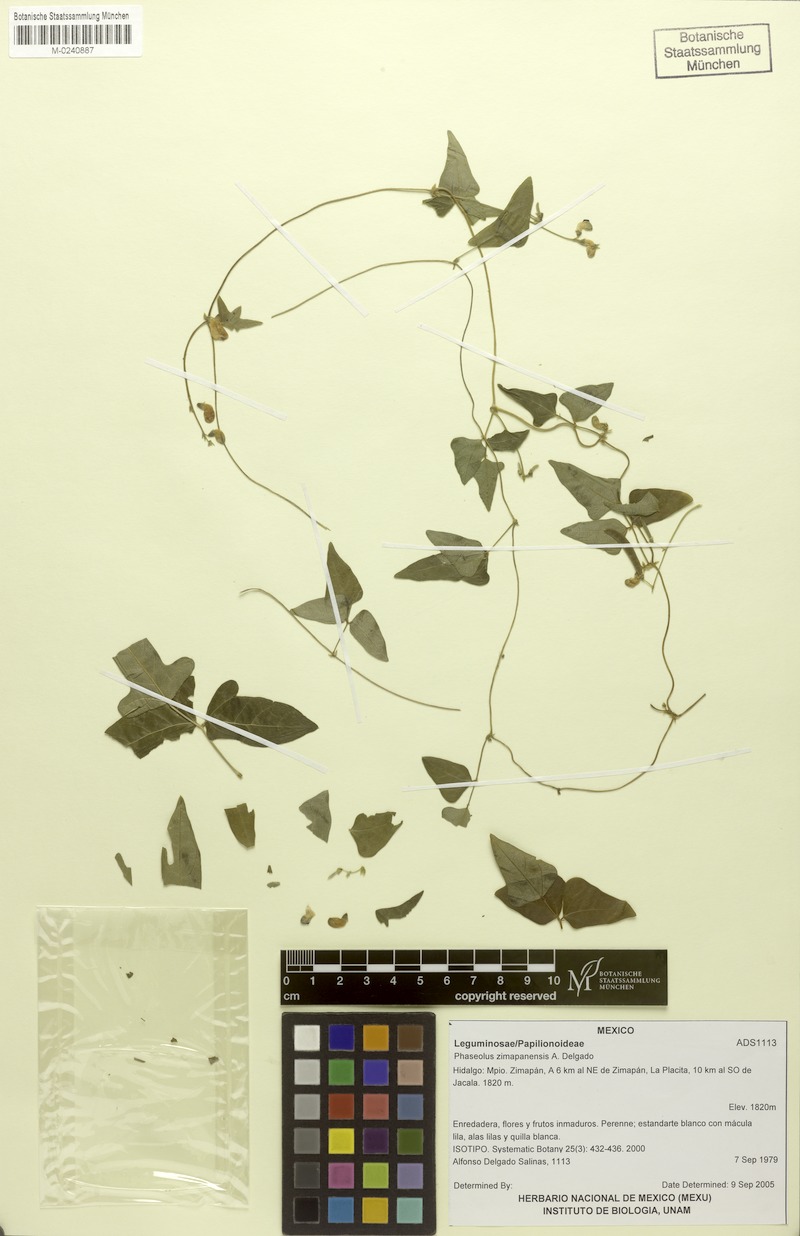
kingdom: Plantae
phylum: Tracheophyta
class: Magnoliopsida
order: Fabales
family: Fabaceae
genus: Phaseolus
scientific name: Phaseolus zimapanensis
